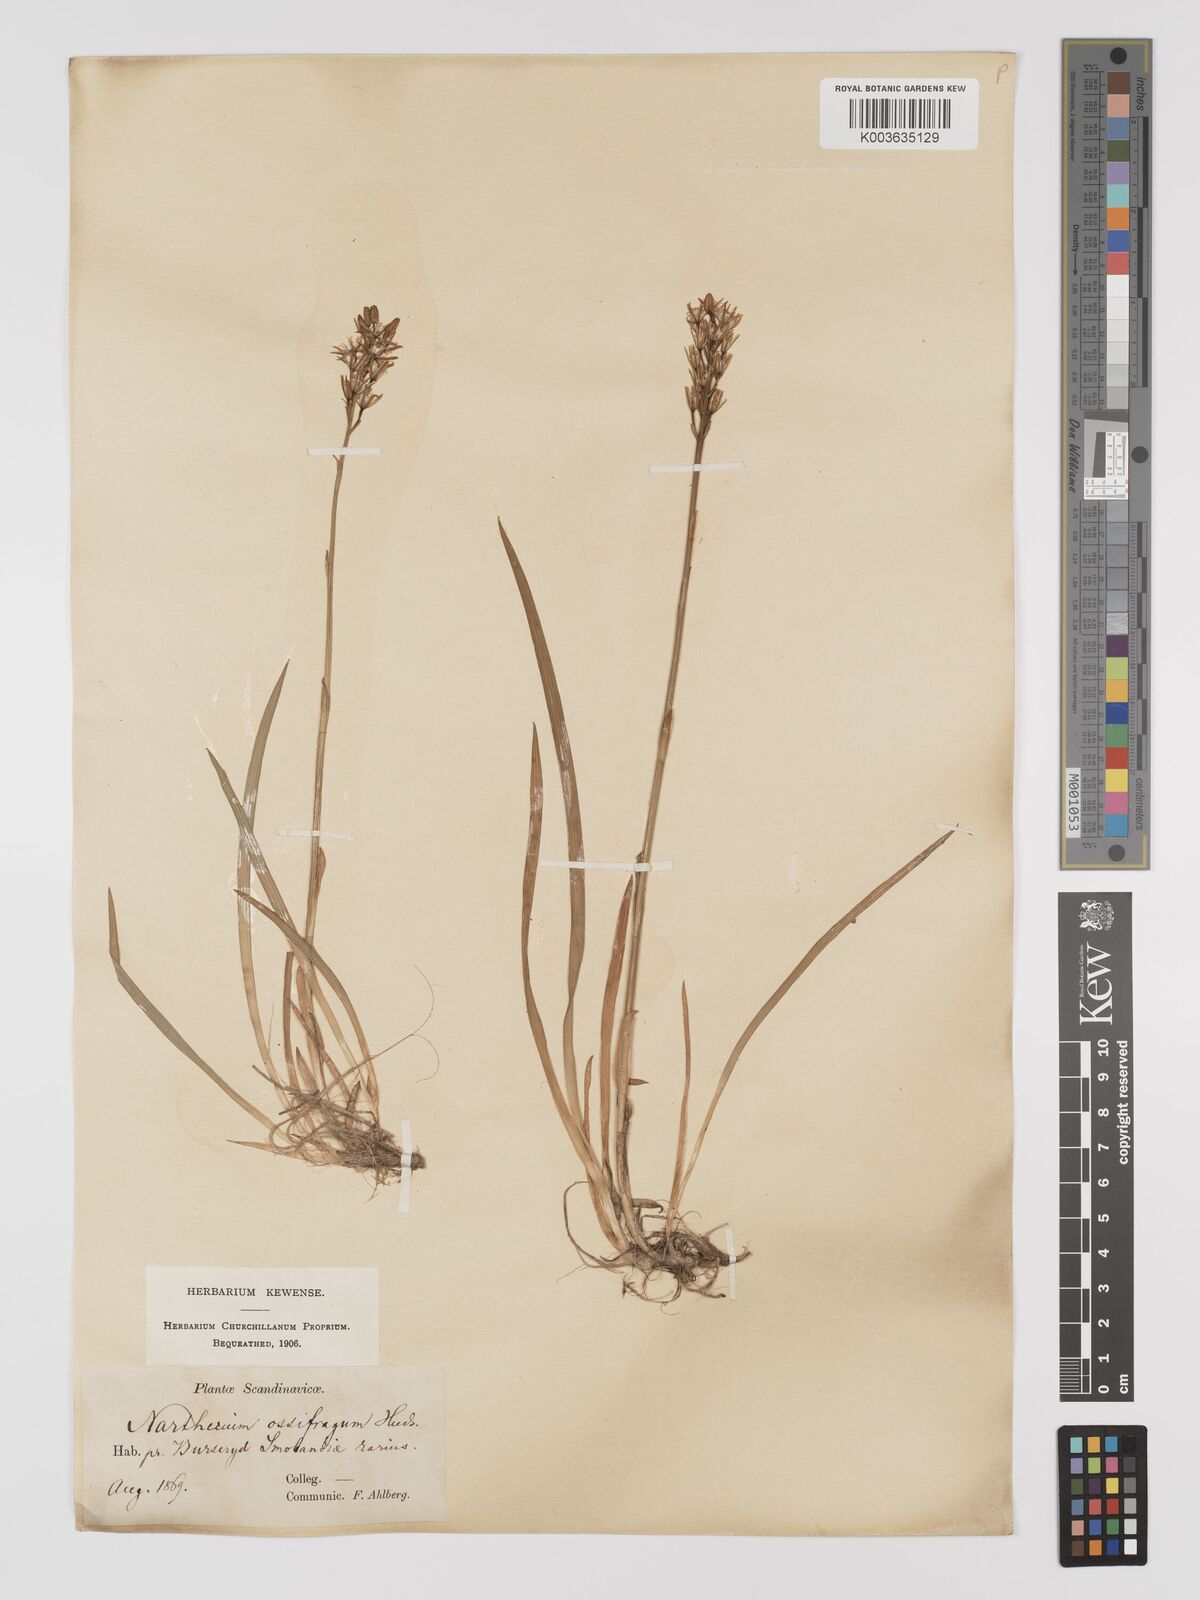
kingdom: Plantae
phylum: Tracheophyta
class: Liliopsida
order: Dioscoreales
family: Nartheciaceae
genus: Narthecium
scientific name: Narthecium ossifragum
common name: Bog asphodel
